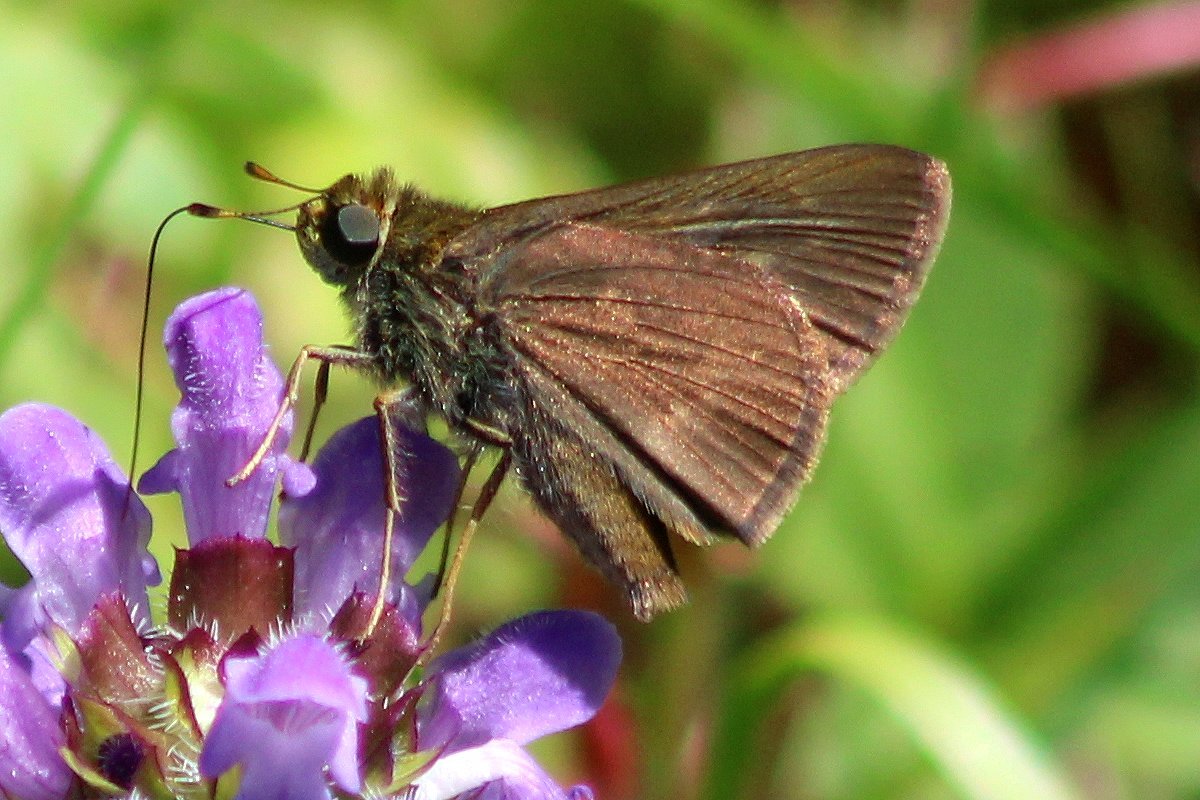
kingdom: Animalia
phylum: Arthropoda
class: Insecta
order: Lepidoptera
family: Hesperiidae
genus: Euphyes
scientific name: Euphyes vestris
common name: Dun Skipper
